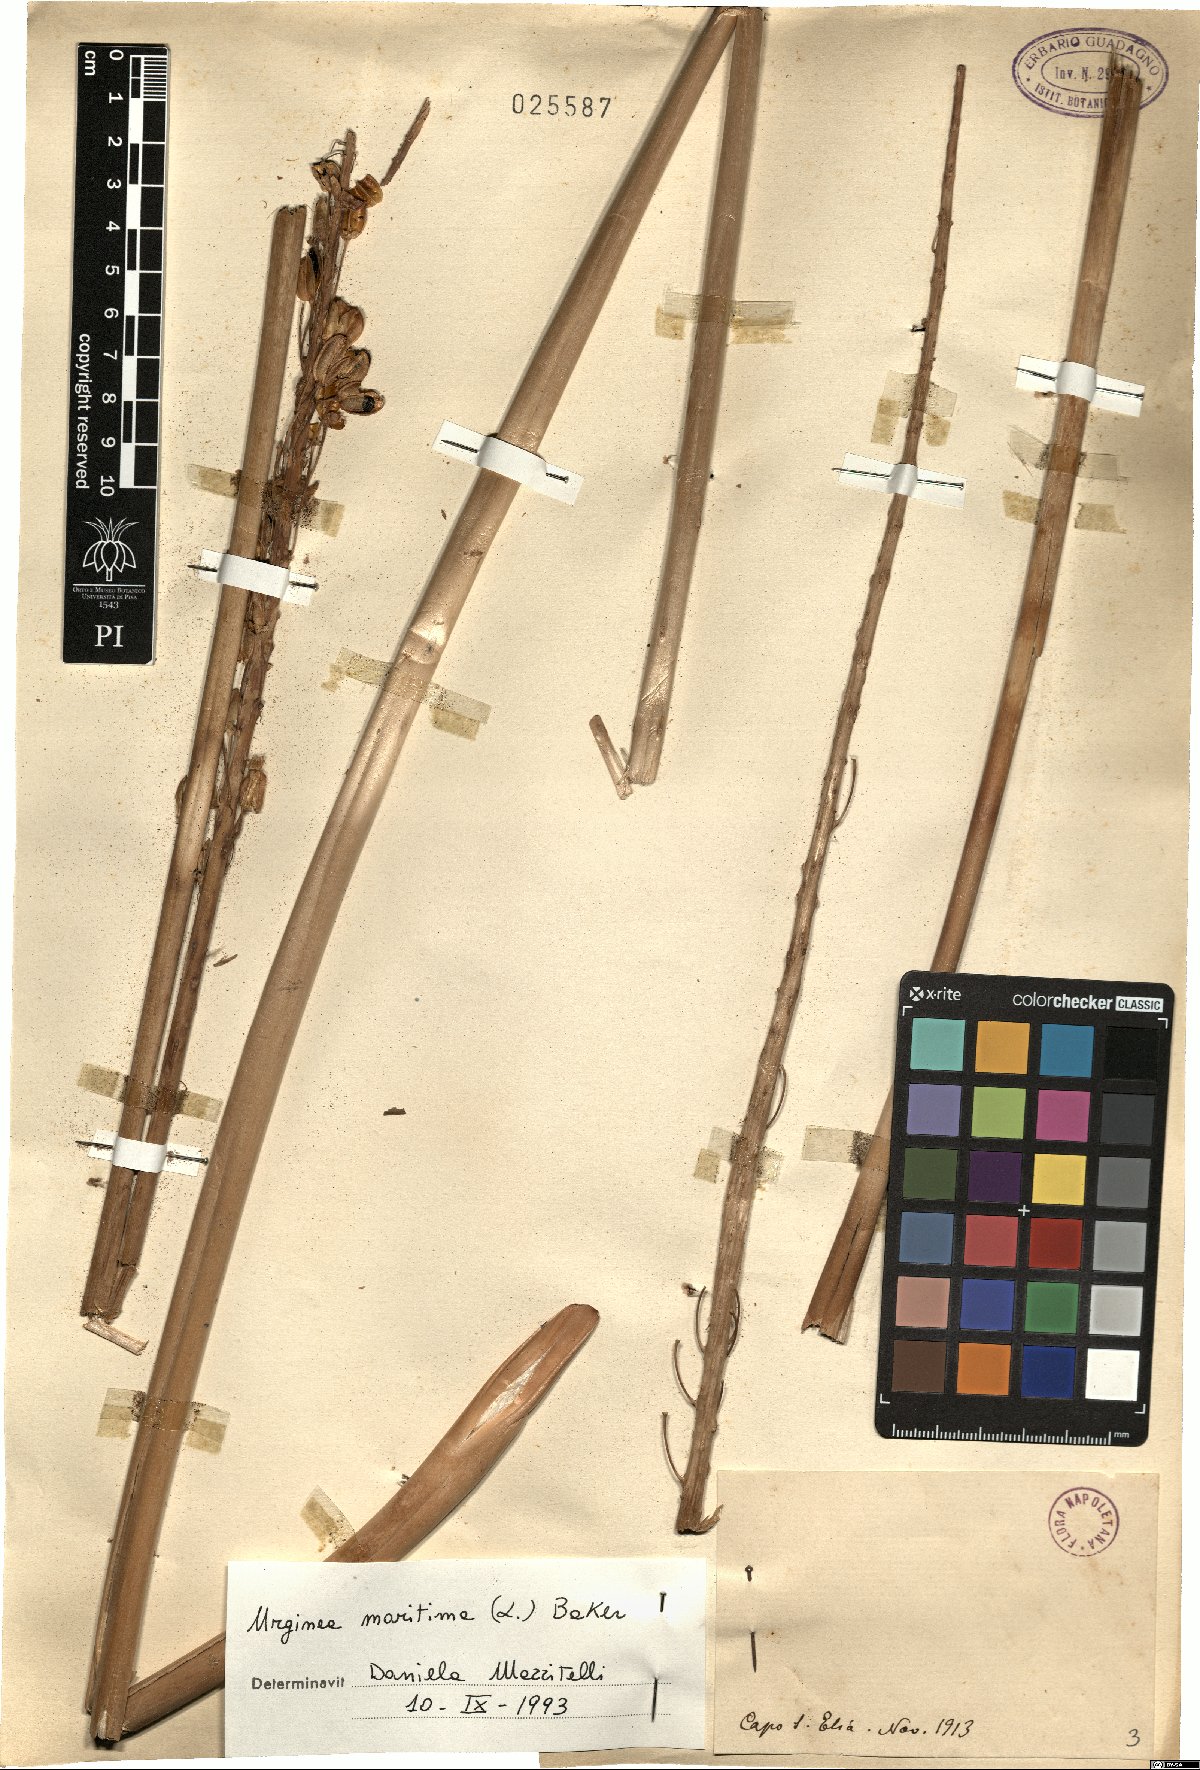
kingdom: Plantae
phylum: Tracheophyta
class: Liliopsida
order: Asparagales
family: Asparagaceae
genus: Drimia
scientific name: Drimia maritima
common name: Maritime squill
